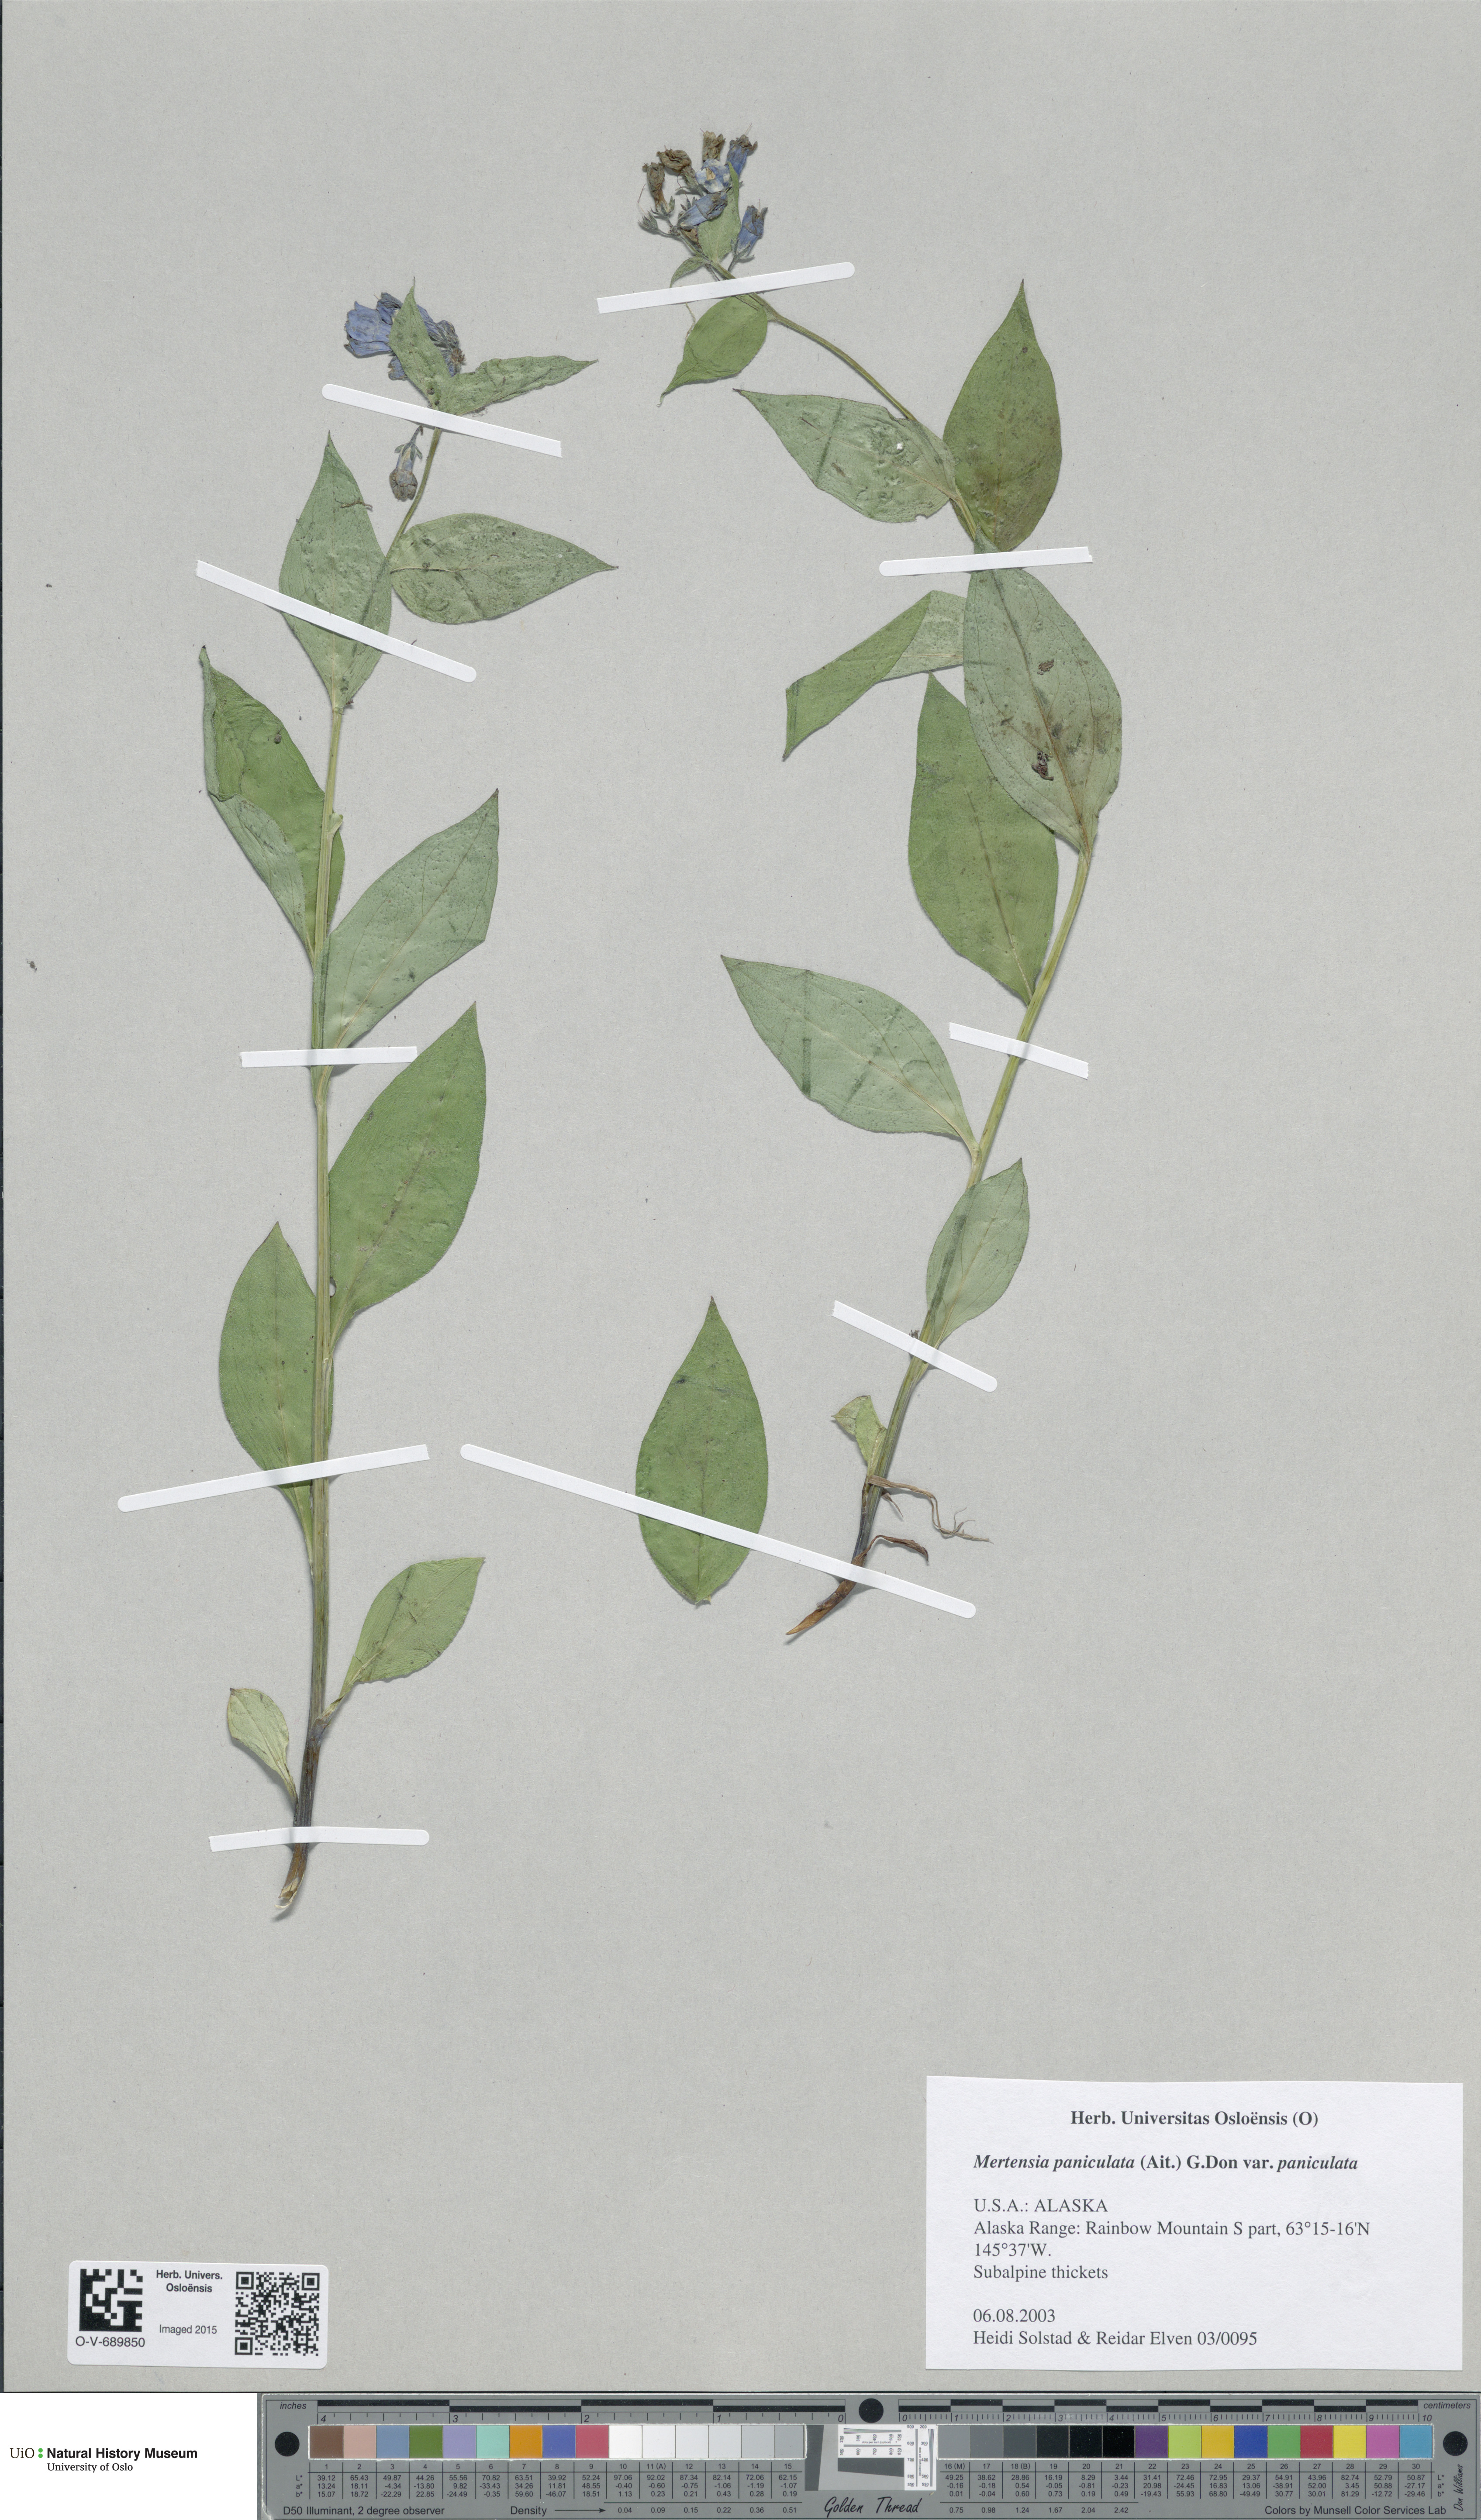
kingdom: Plantae
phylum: Tracheophyta
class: Magnoliopsida
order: Boraginales
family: Boraginaceae
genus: Mertensia
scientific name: Mertensia paniculata
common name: Panicled bluebells
